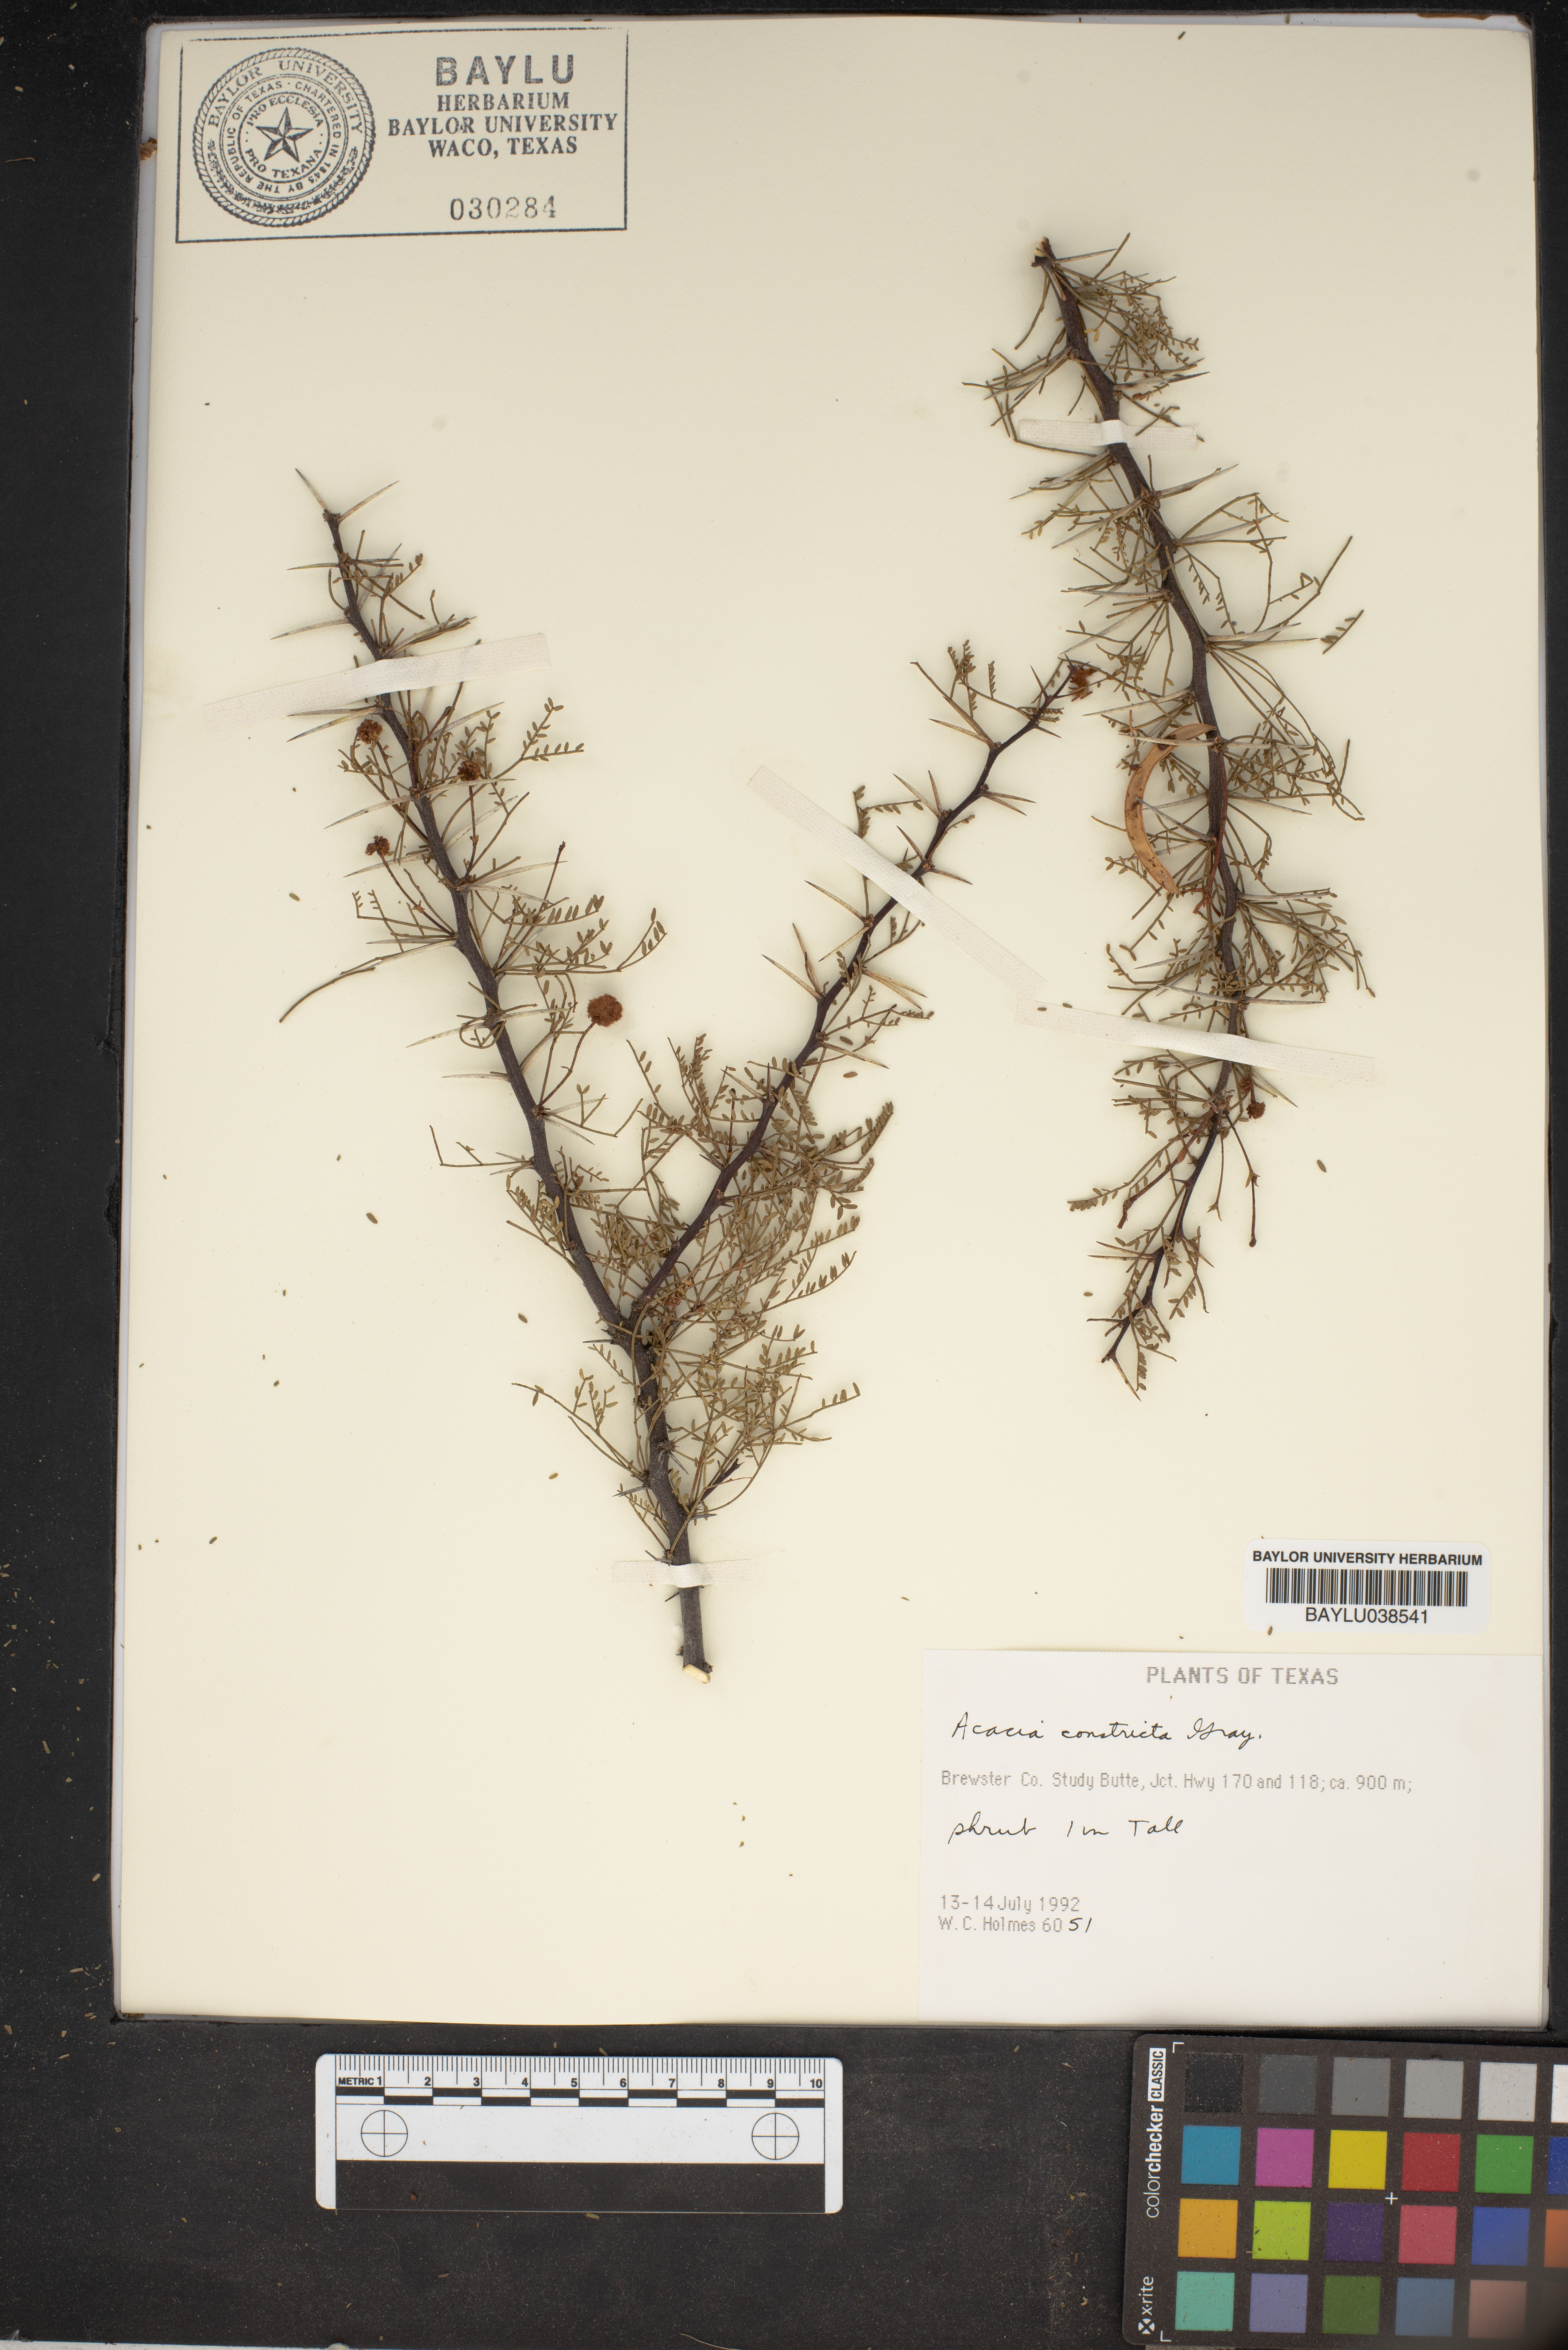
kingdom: Plantae
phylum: Tracheophyta
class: Magnoliopsida
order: Fabales
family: Fabaceae
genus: Vachellia
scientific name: Vachellia constricta
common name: Mescat acacia
